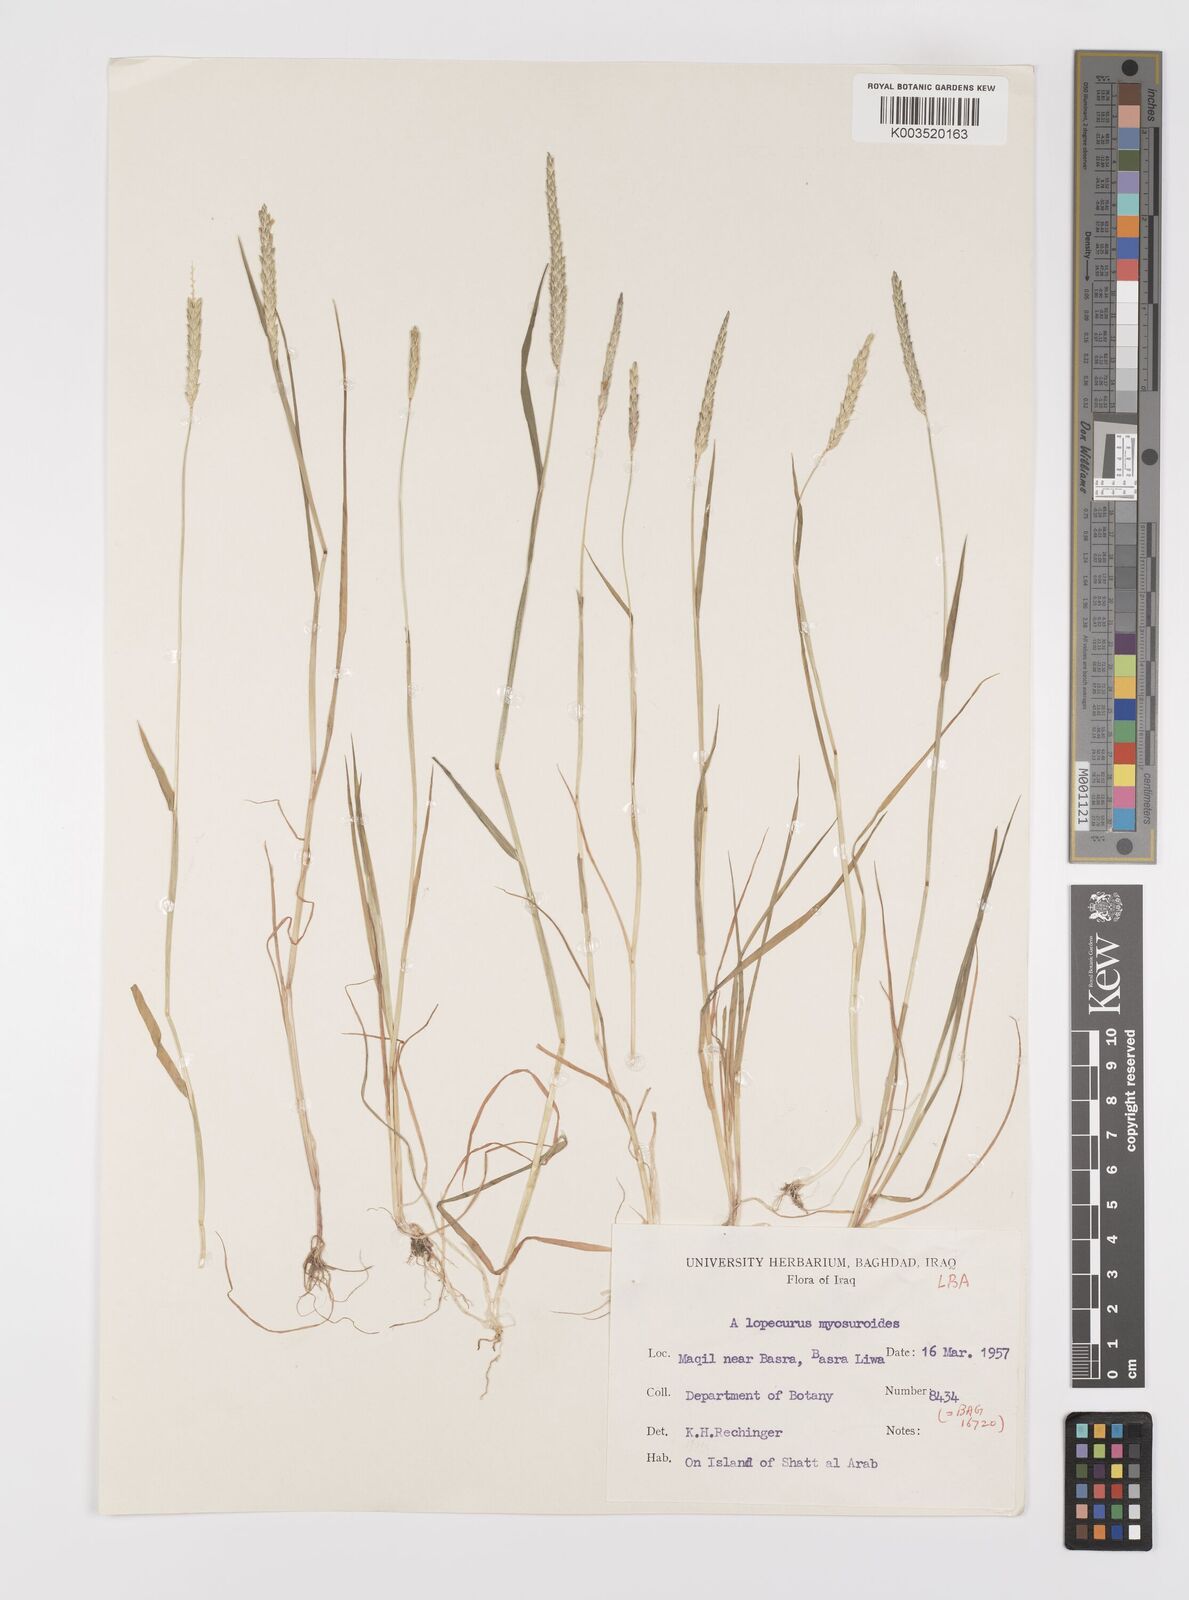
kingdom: Plantae
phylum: Tracheophyta
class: Liliopsida
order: Poales
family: Poaceae
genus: Alopecurus
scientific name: Alopecurus myosuroides
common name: Black-grass
